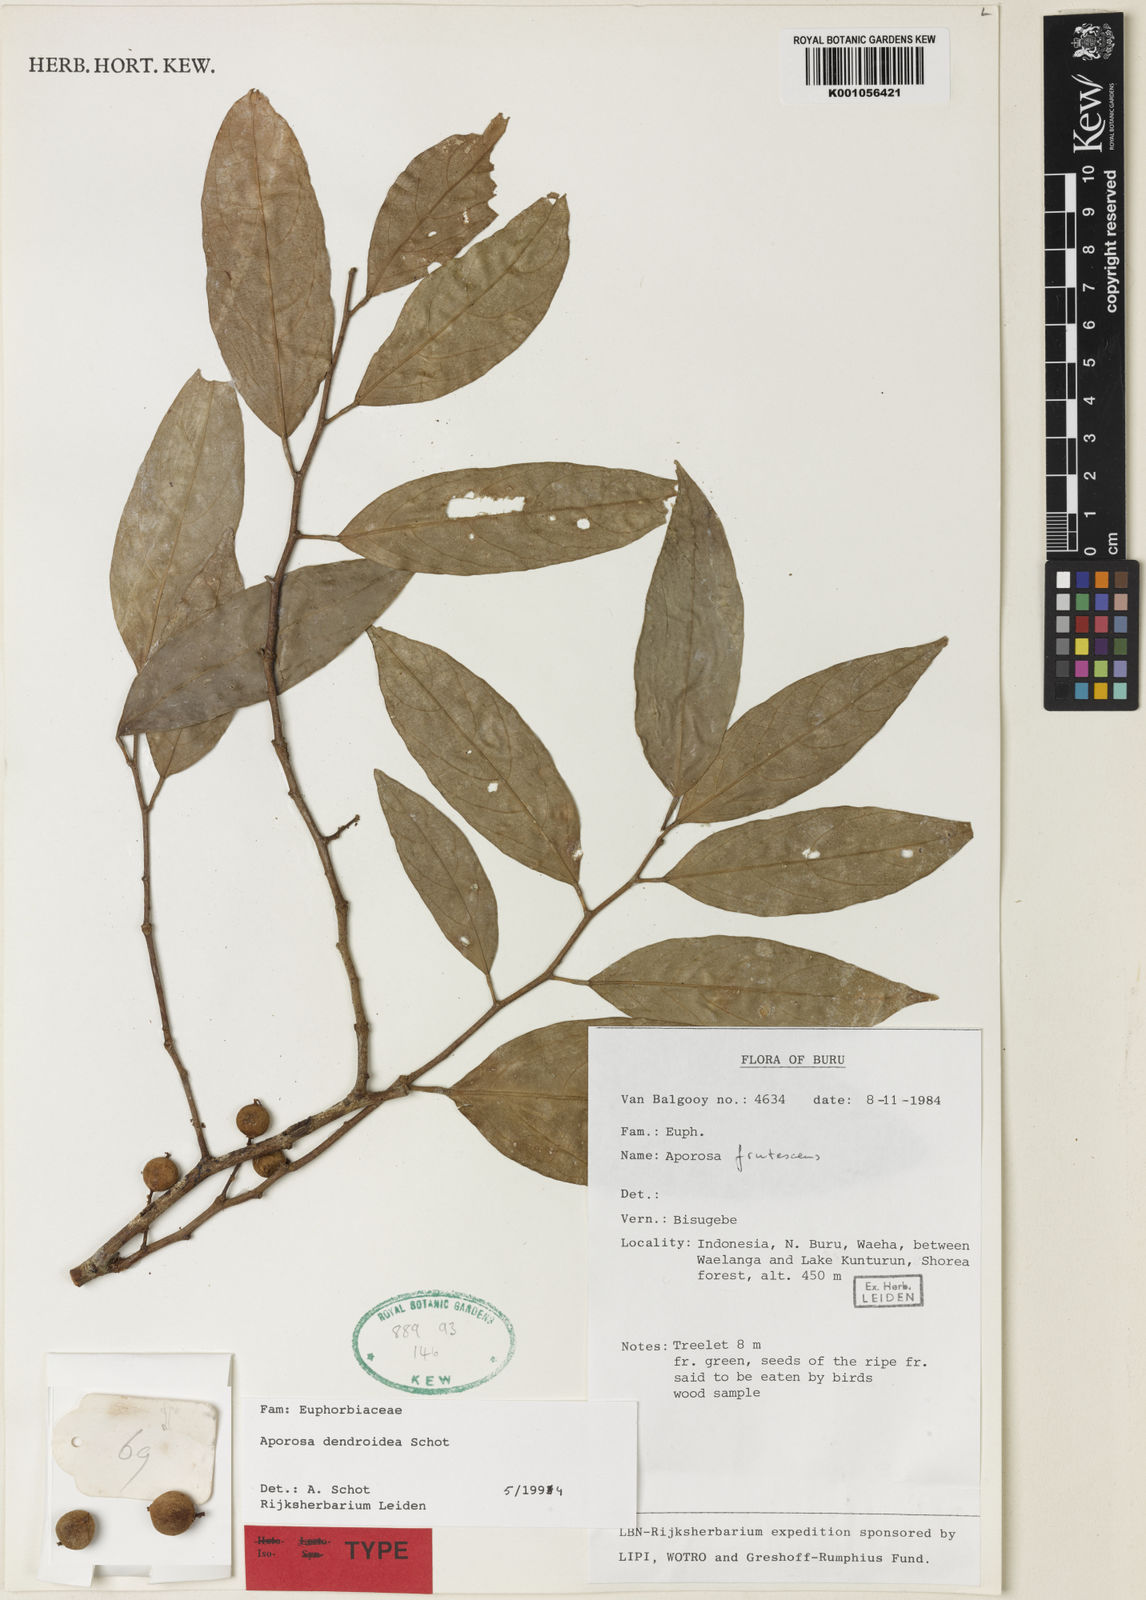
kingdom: Plantae
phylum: Tracheophyta
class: Magnoliopsida
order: Malpighiales
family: Phyllanthaceae
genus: Aporosa
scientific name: Aporosa dendroidea
